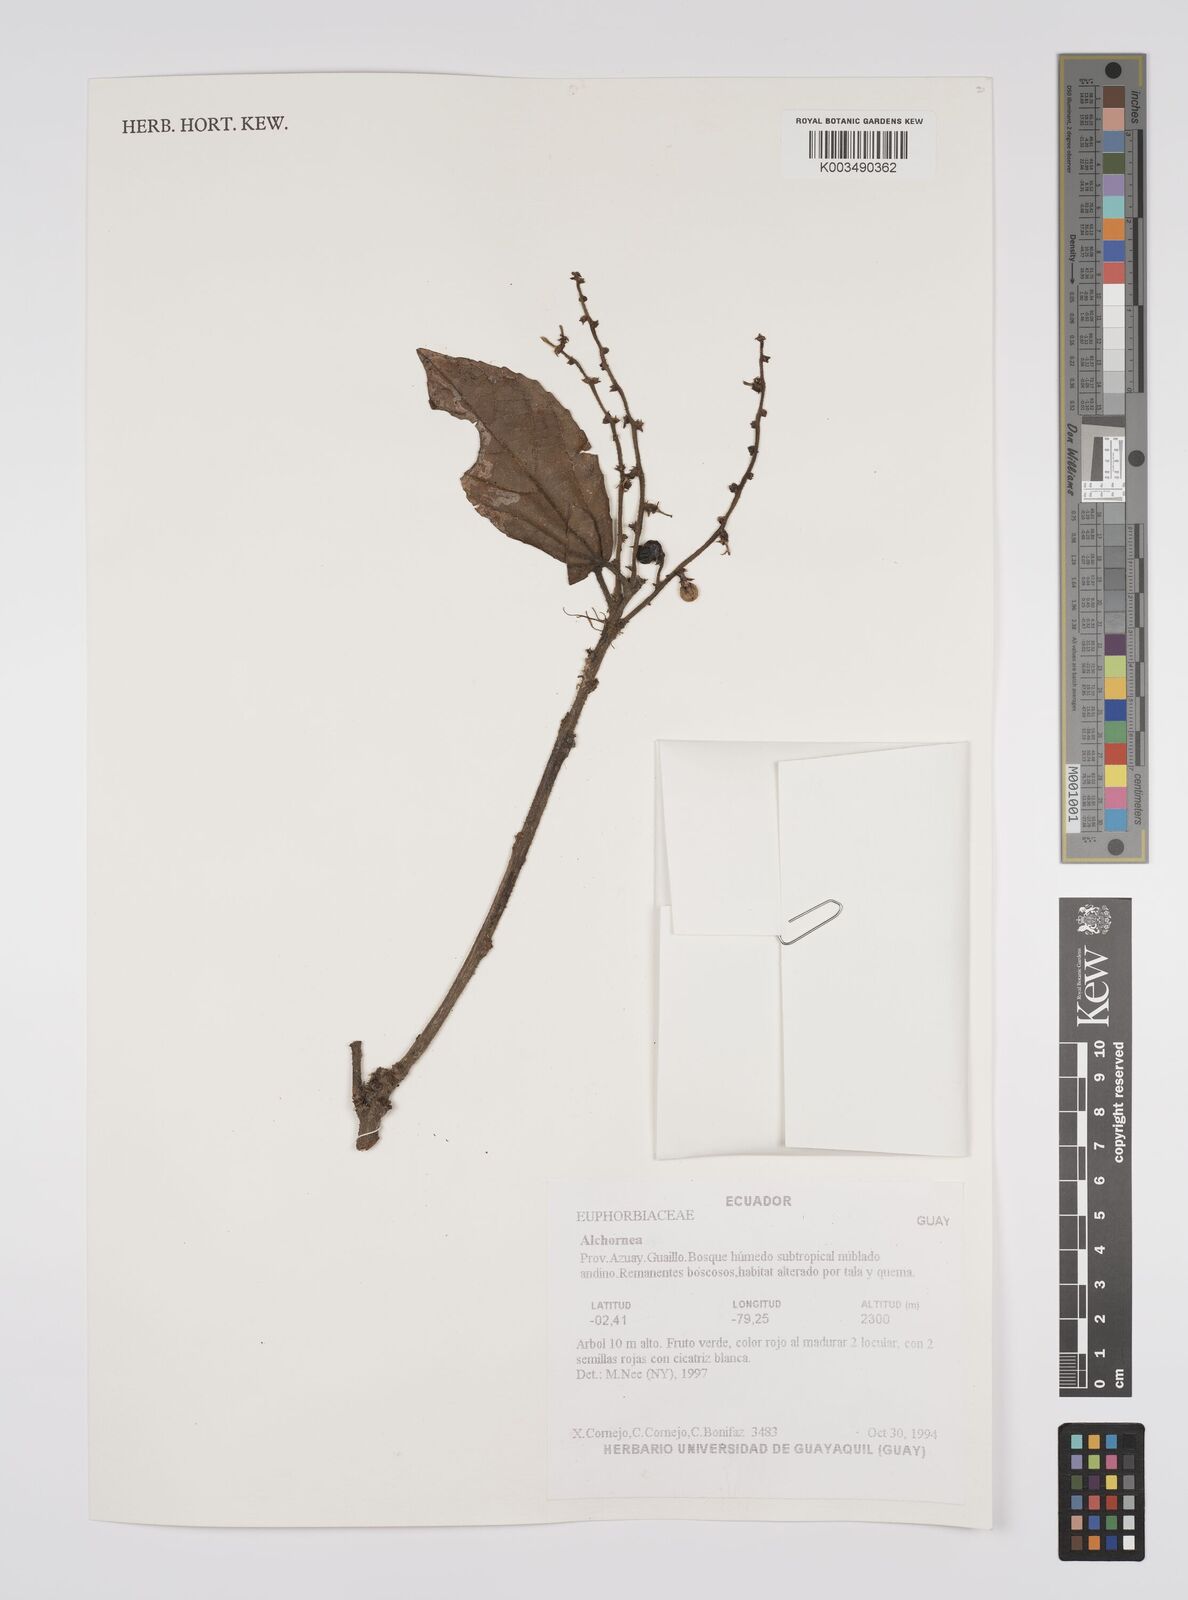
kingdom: Plantae
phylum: Tracheophyta
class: Magnoliopsida
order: Malpighiales
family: Euphorbiaceae
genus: Alchornea
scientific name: Alchornea
